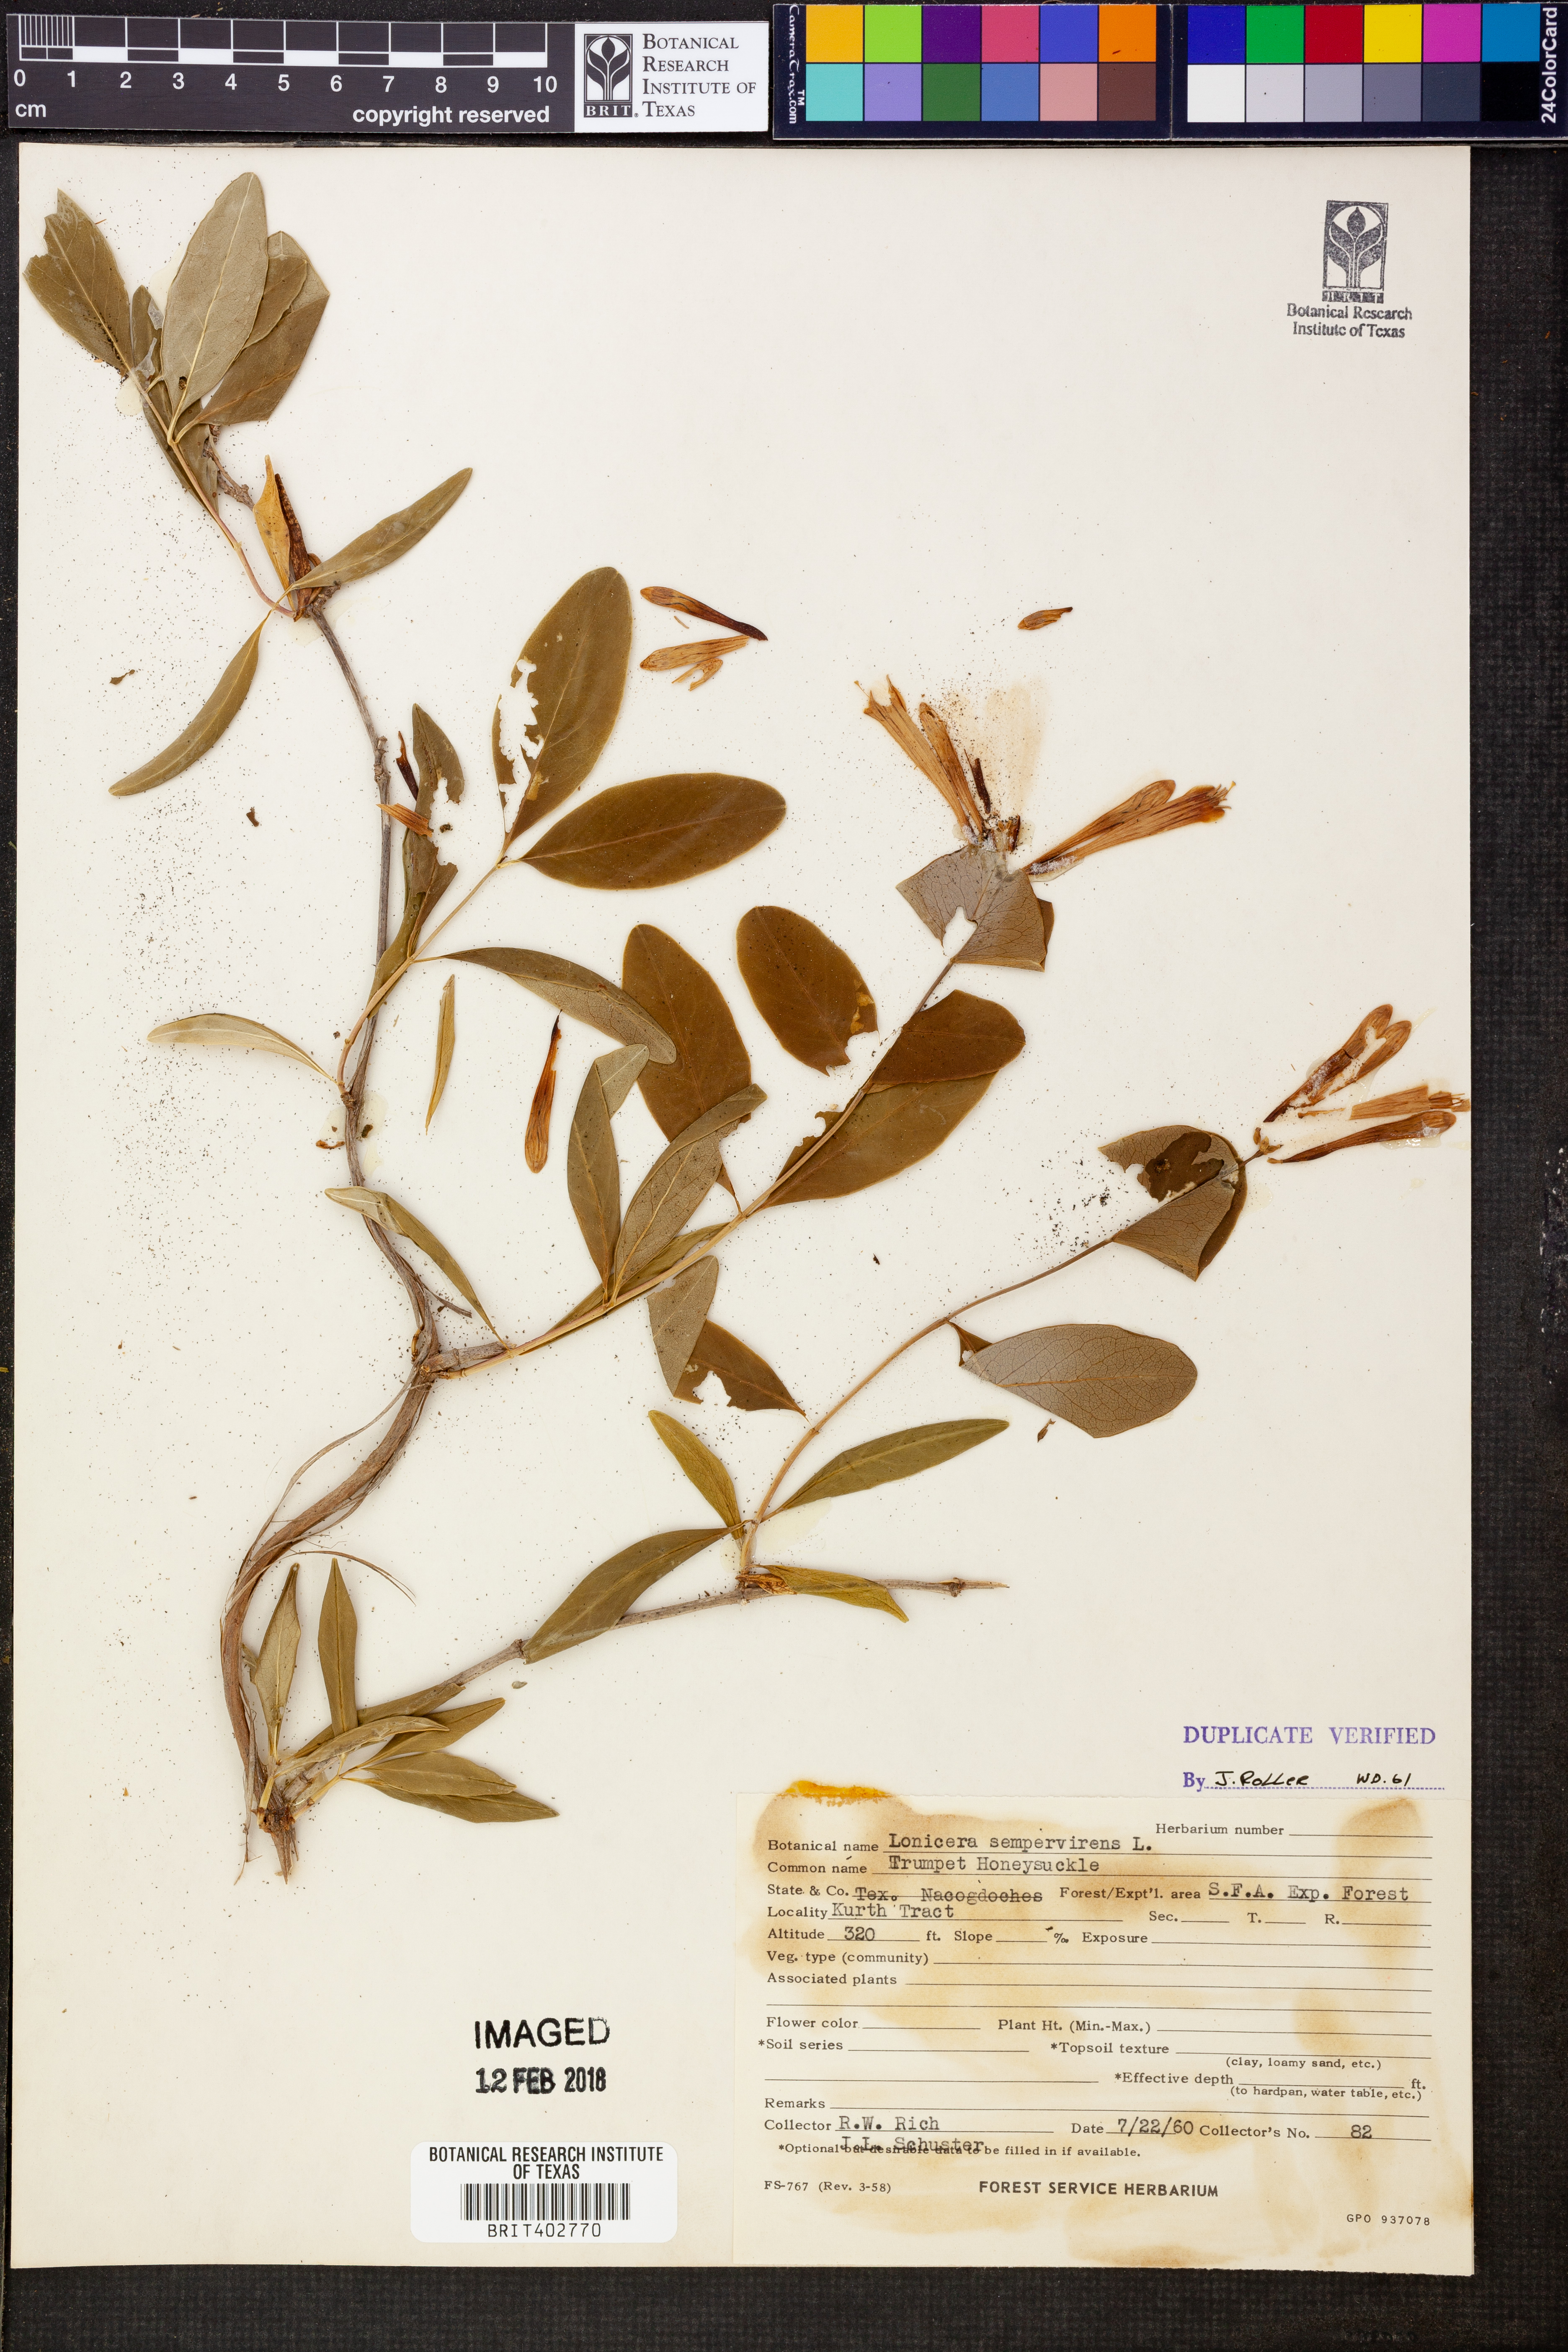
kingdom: Plantae
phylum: Tracheophyta
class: Magnoliopsida
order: Dipsacales
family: Caprifoliaceae
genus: Lonicera
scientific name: Lonicera sempervirens
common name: Coral honeysuckle
